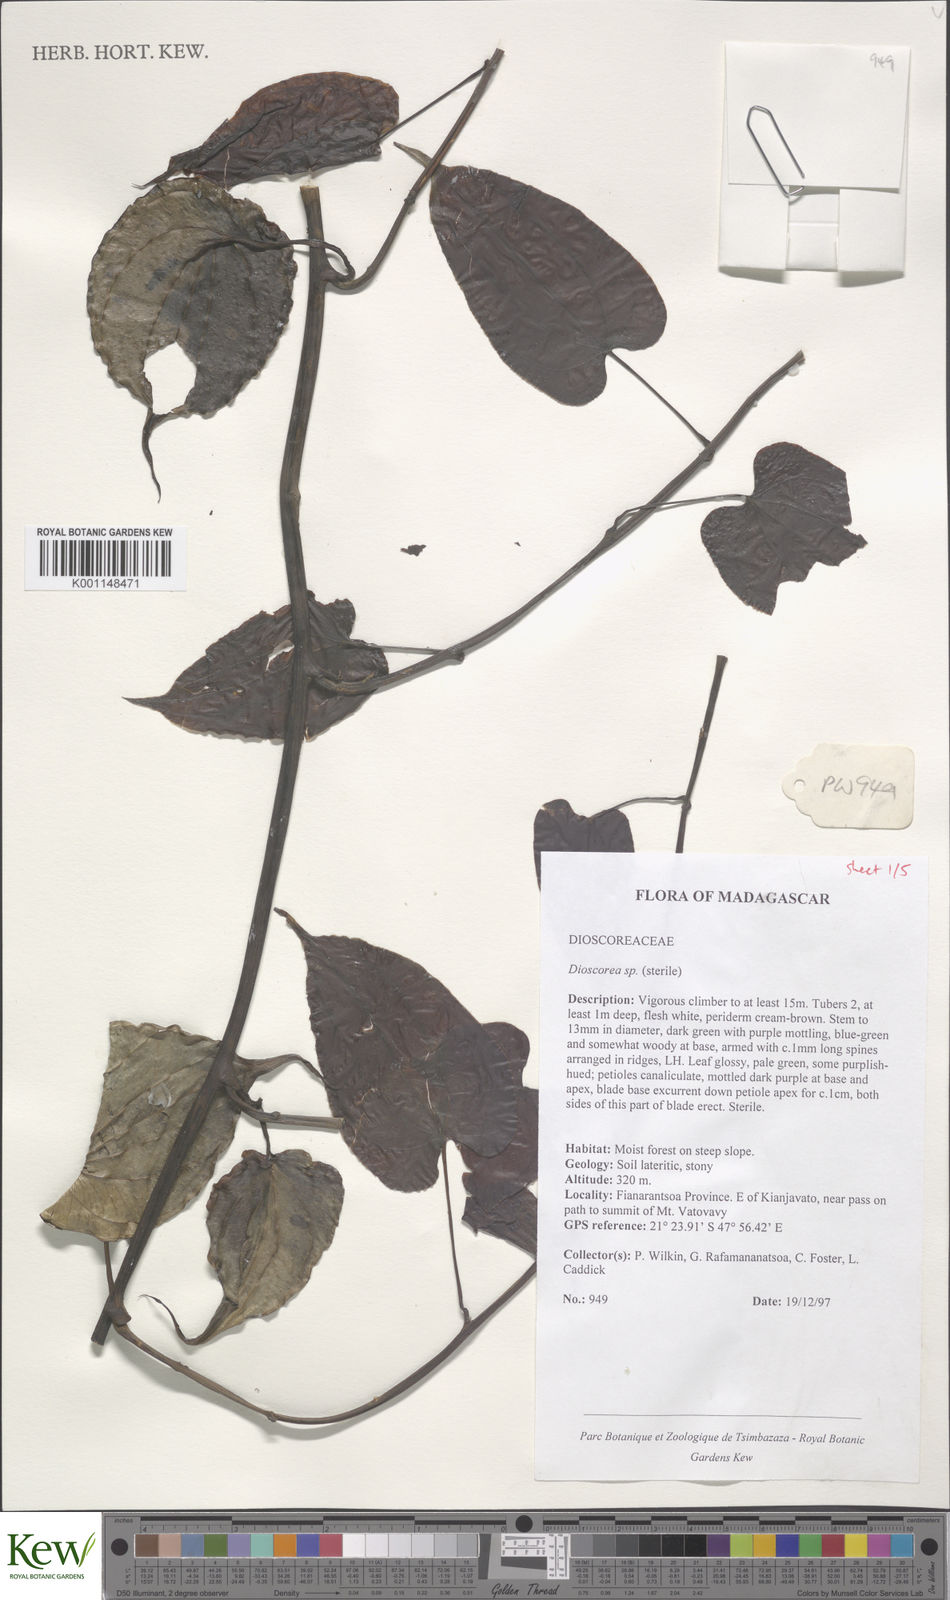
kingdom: Plantae
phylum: Tracheophyta
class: Liliopsida
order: Dioscoreales
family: Dioscoreaceae
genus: Dioscorea
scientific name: Dioscorea
